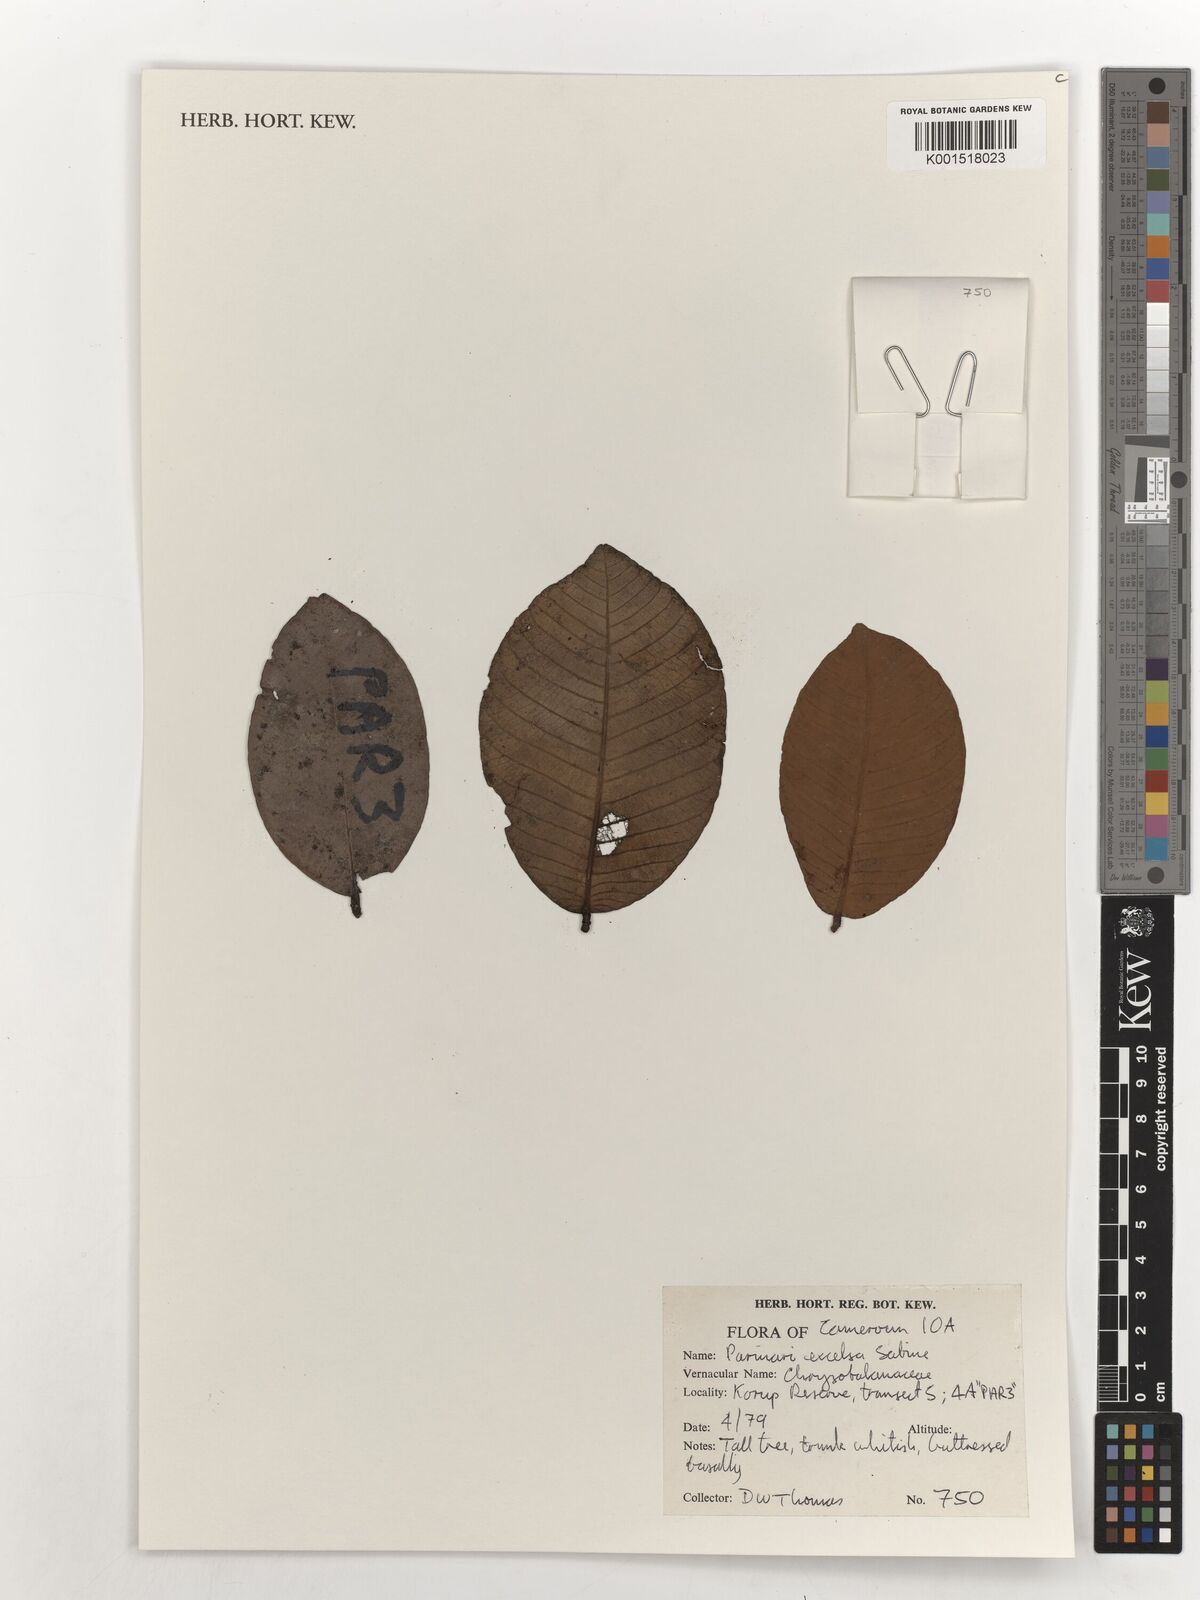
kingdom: Plantae
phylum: Tracheophyta
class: Magnoliopsida
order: Malpighiales
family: Chrysobalanaceae
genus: Parinari
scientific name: Parinari excelsa
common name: Guinea-plum
